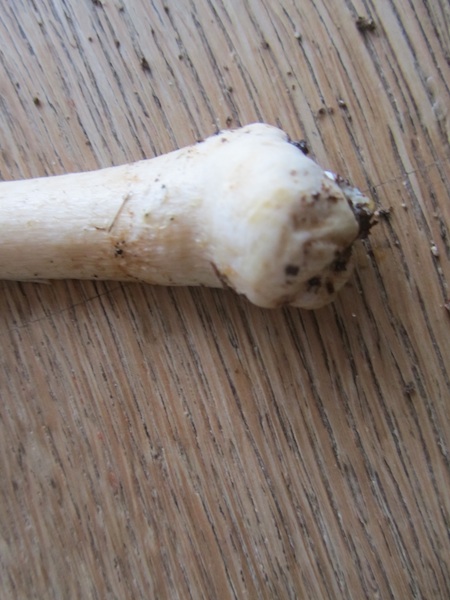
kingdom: Fungi
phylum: Basidiomycota
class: Agaricomycetes
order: Agaricales
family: Agaricaceae
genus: Agaricus
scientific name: Agaricus sylvicola
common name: gulhvid champignon
